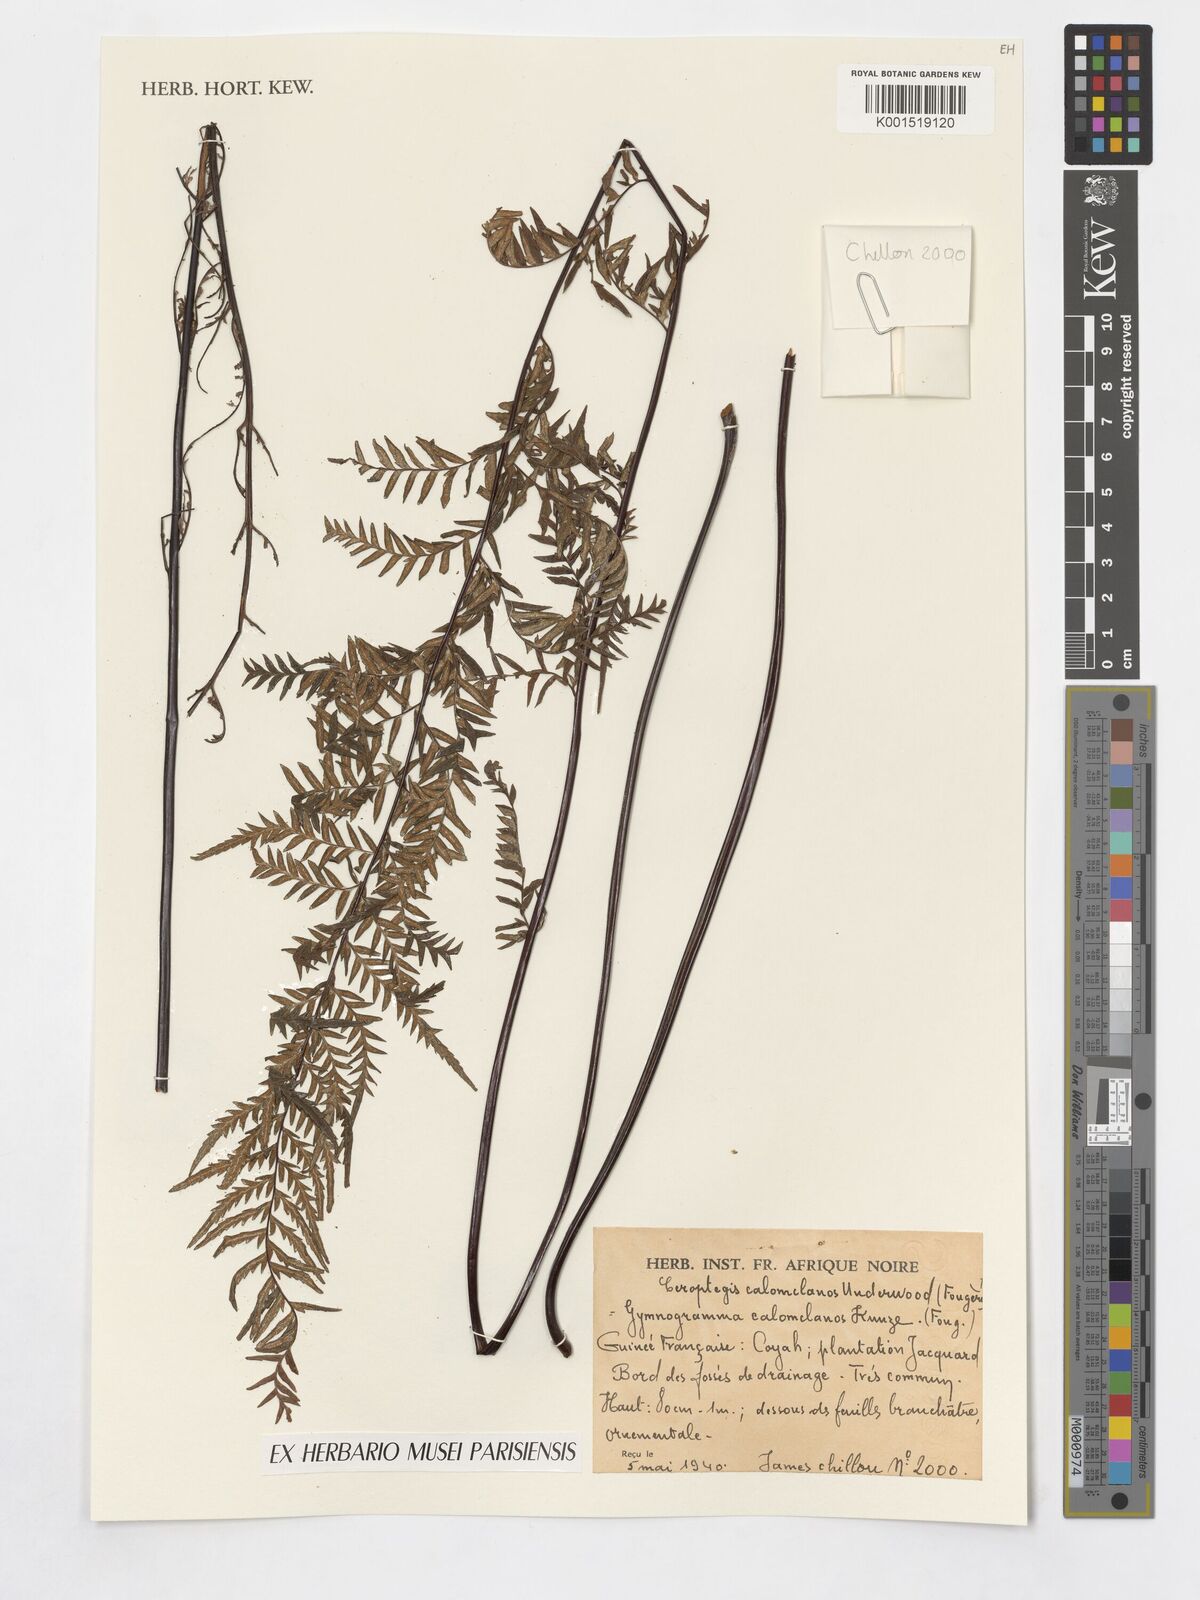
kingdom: Plantae
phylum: Tracheophyta
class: Polypodiopsida
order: Polypodiales
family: Pteridaceae
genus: Pityrogramma
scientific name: Pityrogramma calomelanos
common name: Dixie silverback fern
